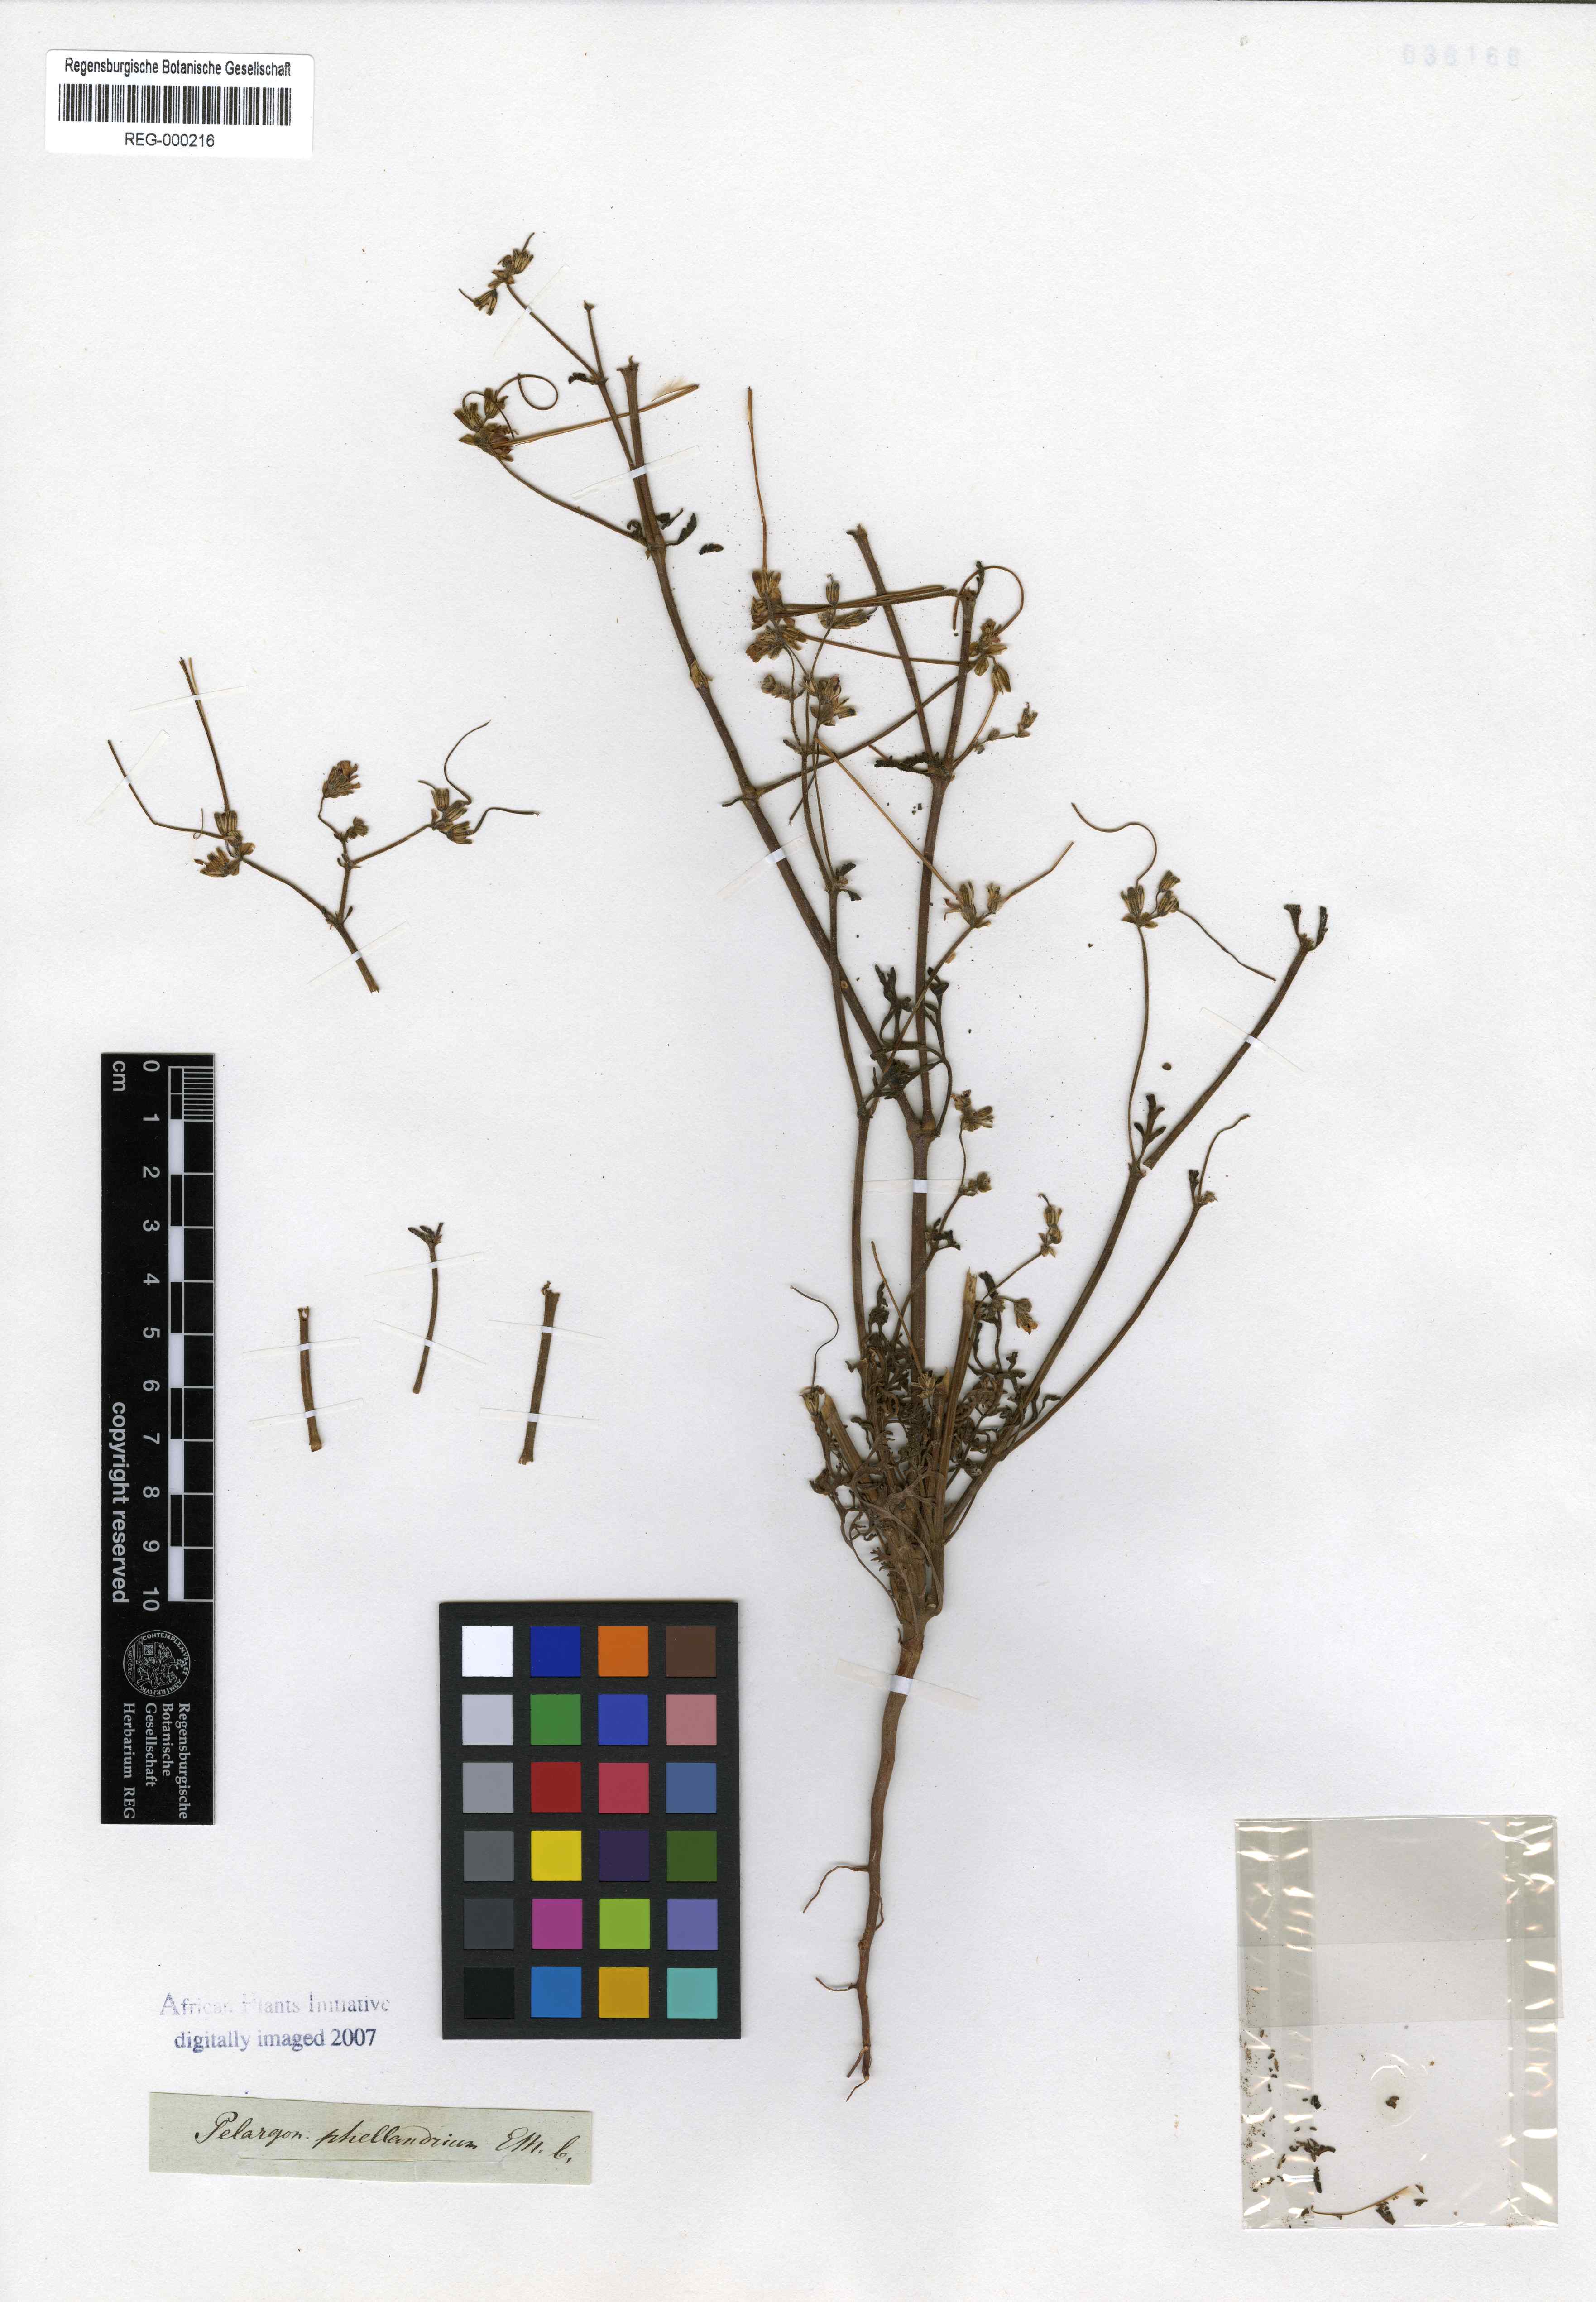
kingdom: Plantae
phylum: Tracheophyta
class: Magnoliopsida
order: Geraniales
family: Geraniaceae
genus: Pelargonium
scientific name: Pelargonium senecioides
